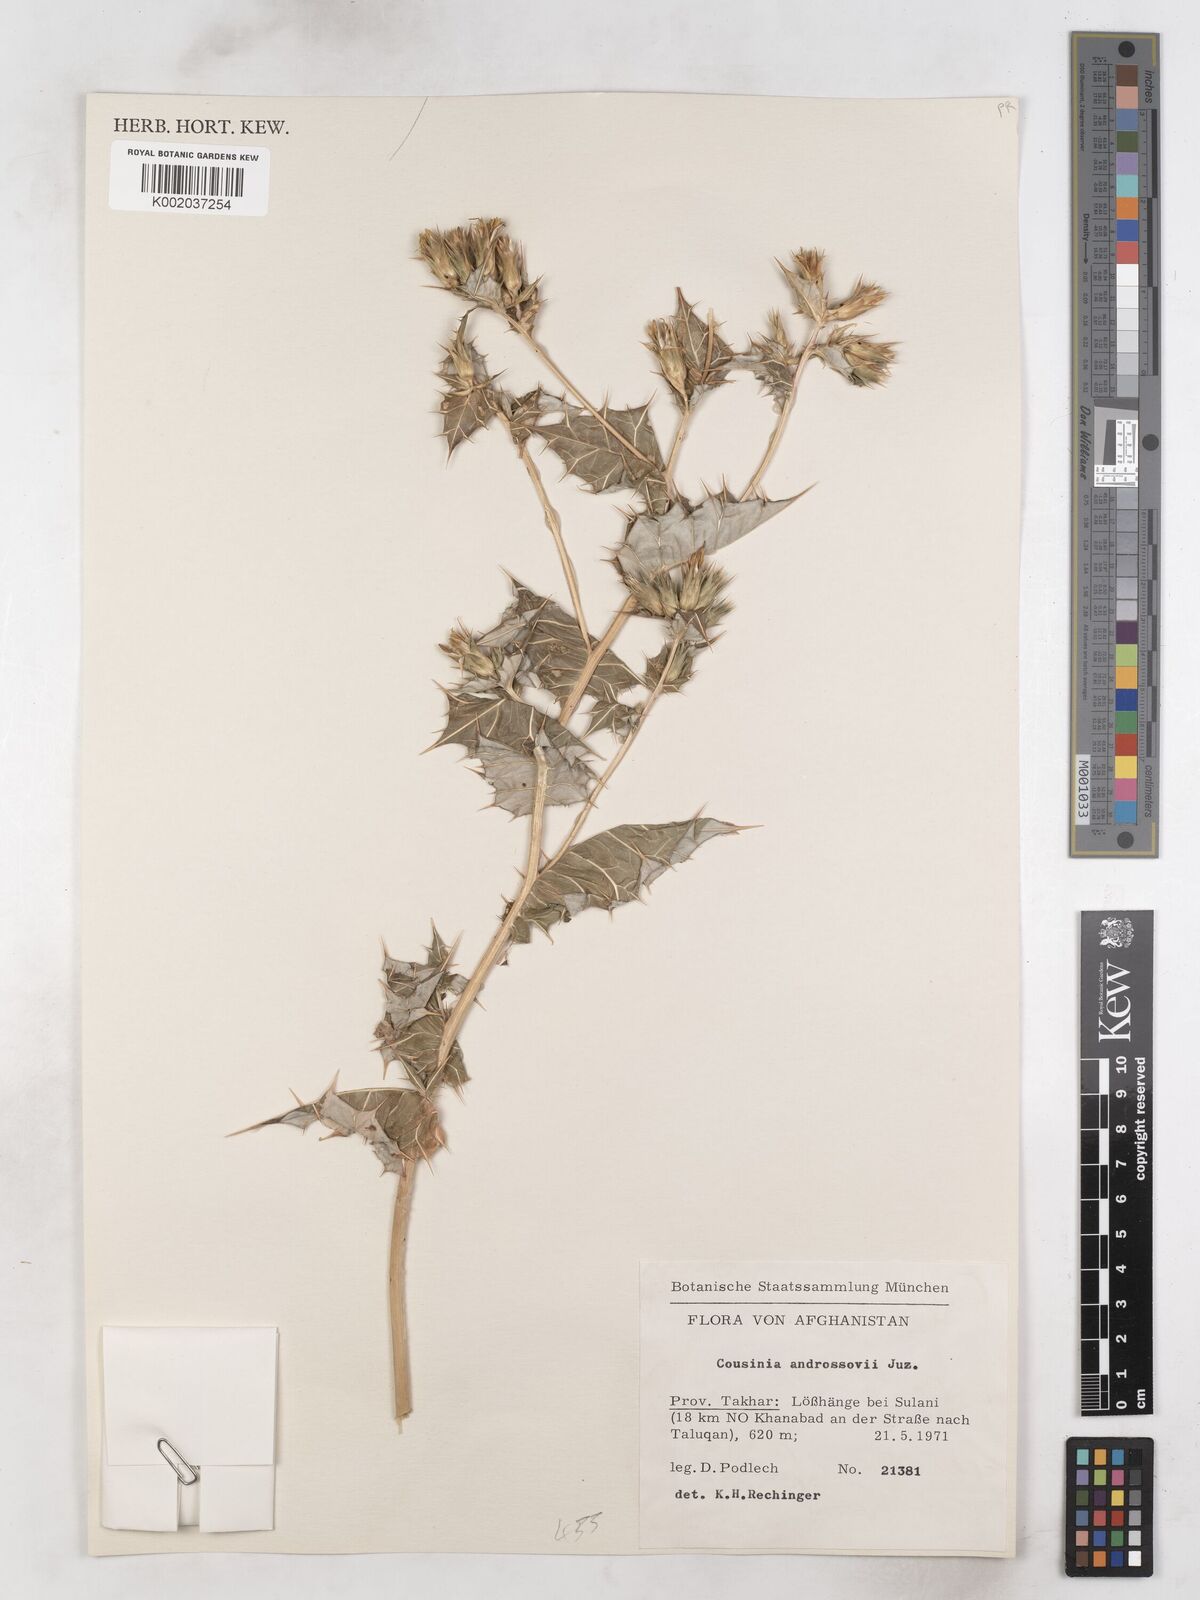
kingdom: Plantae
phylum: Tracheophyta
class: Magnoliopsida
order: Asterales
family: Asteraceae
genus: Cousinia
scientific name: Cousinia androssowii
